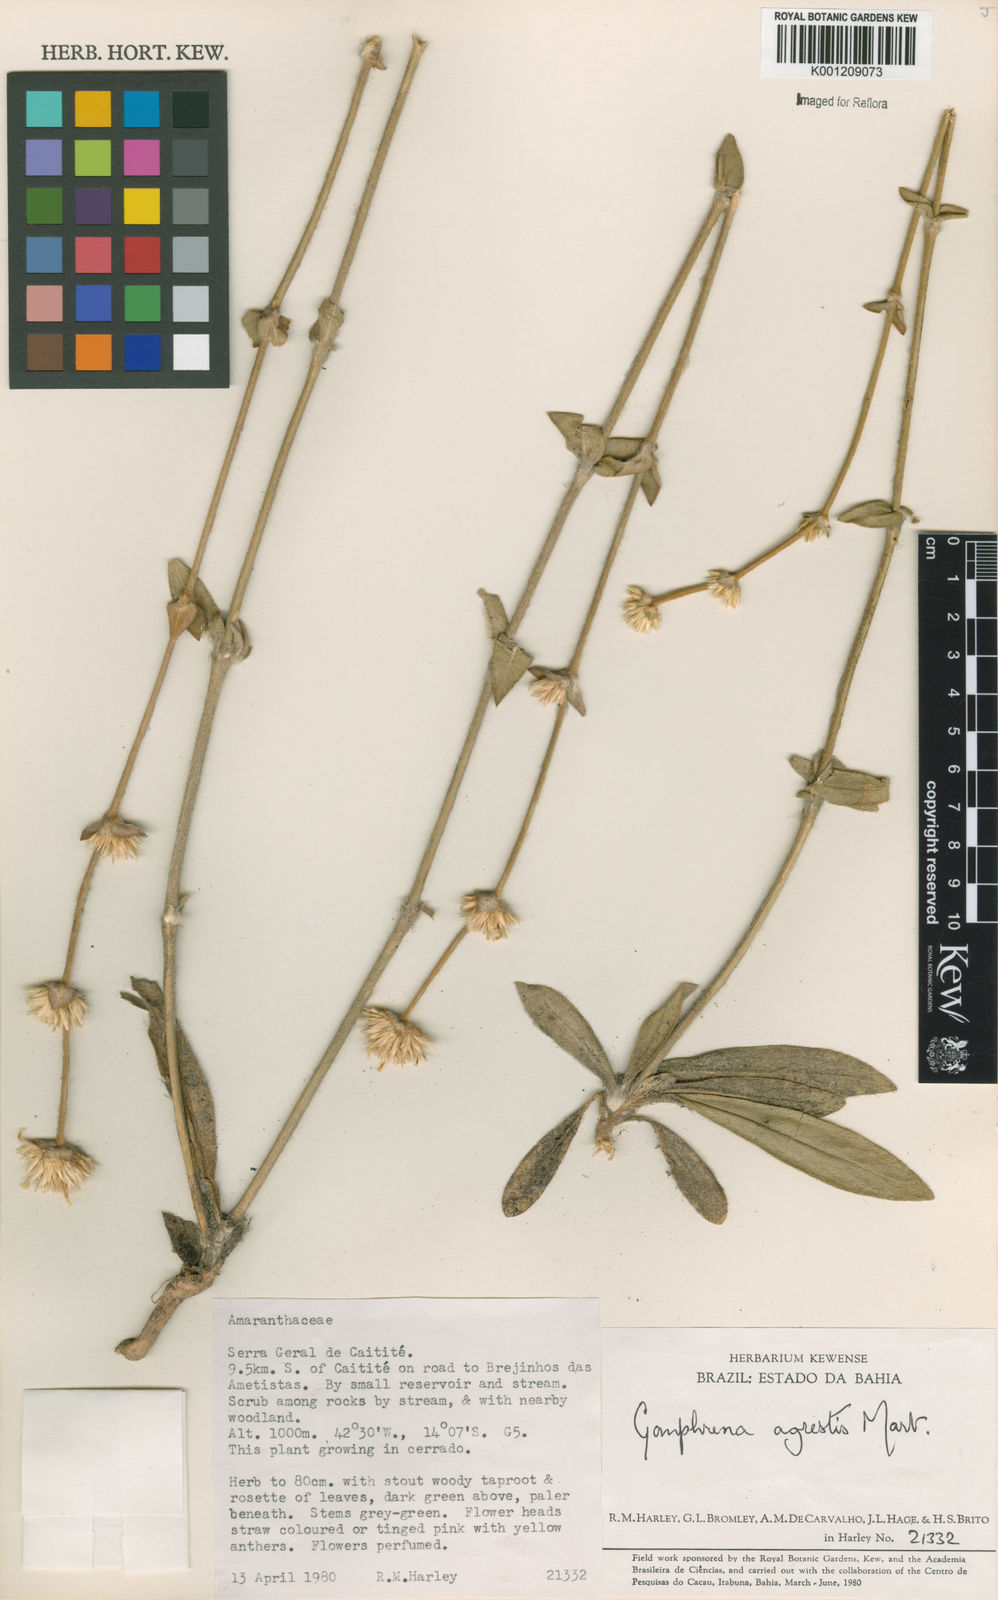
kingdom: Plantae
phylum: Tracheophyta
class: Magnoliopsida
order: Caryophyllales
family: Amaranthaceae
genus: Gomphrena
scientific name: Gomphrena agrestis
